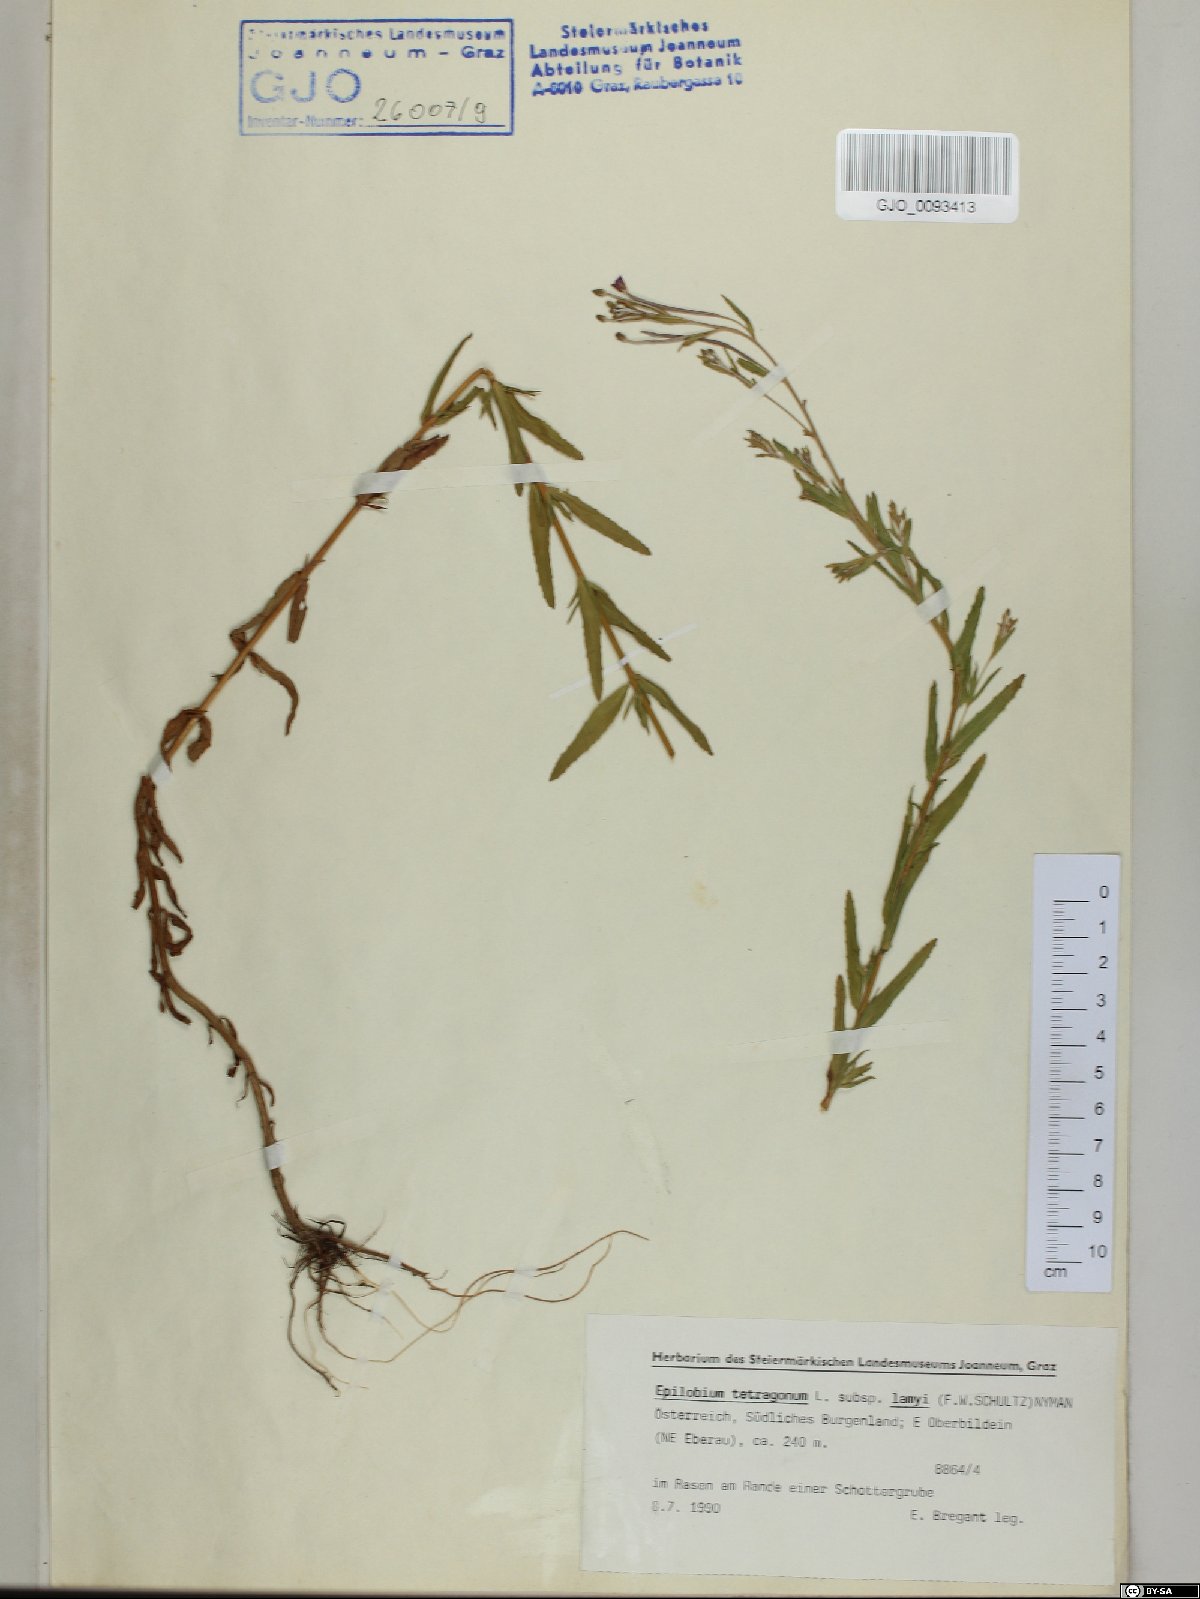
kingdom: Plantae
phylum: Tracheophyta
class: Magnoliopsida
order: Myrtales
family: Onagraceae
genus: Epilobium
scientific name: Epilobium lamyi
